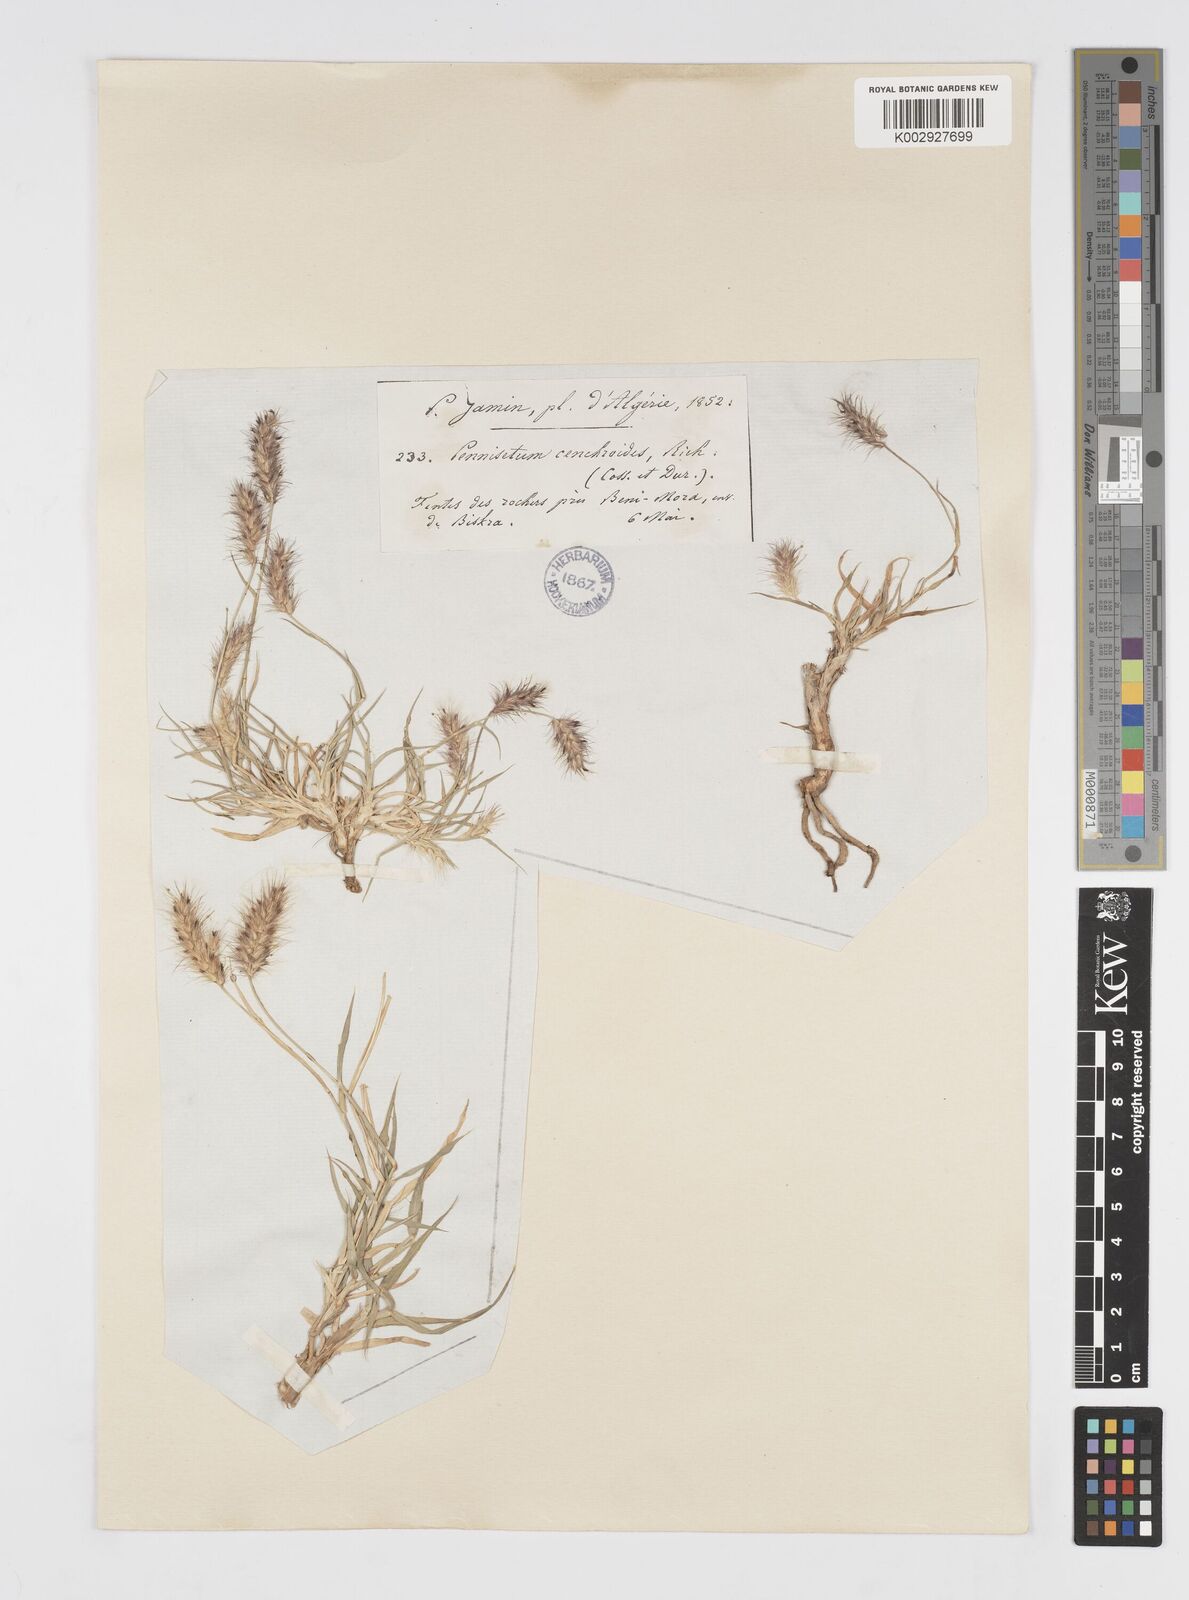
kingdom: Plantae
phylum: Tracheophyta
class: Liliopsida
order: Poales
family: Poaceae
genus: Cenchrus
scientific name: Cenchrus ciliaris
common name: Buffelgrass
